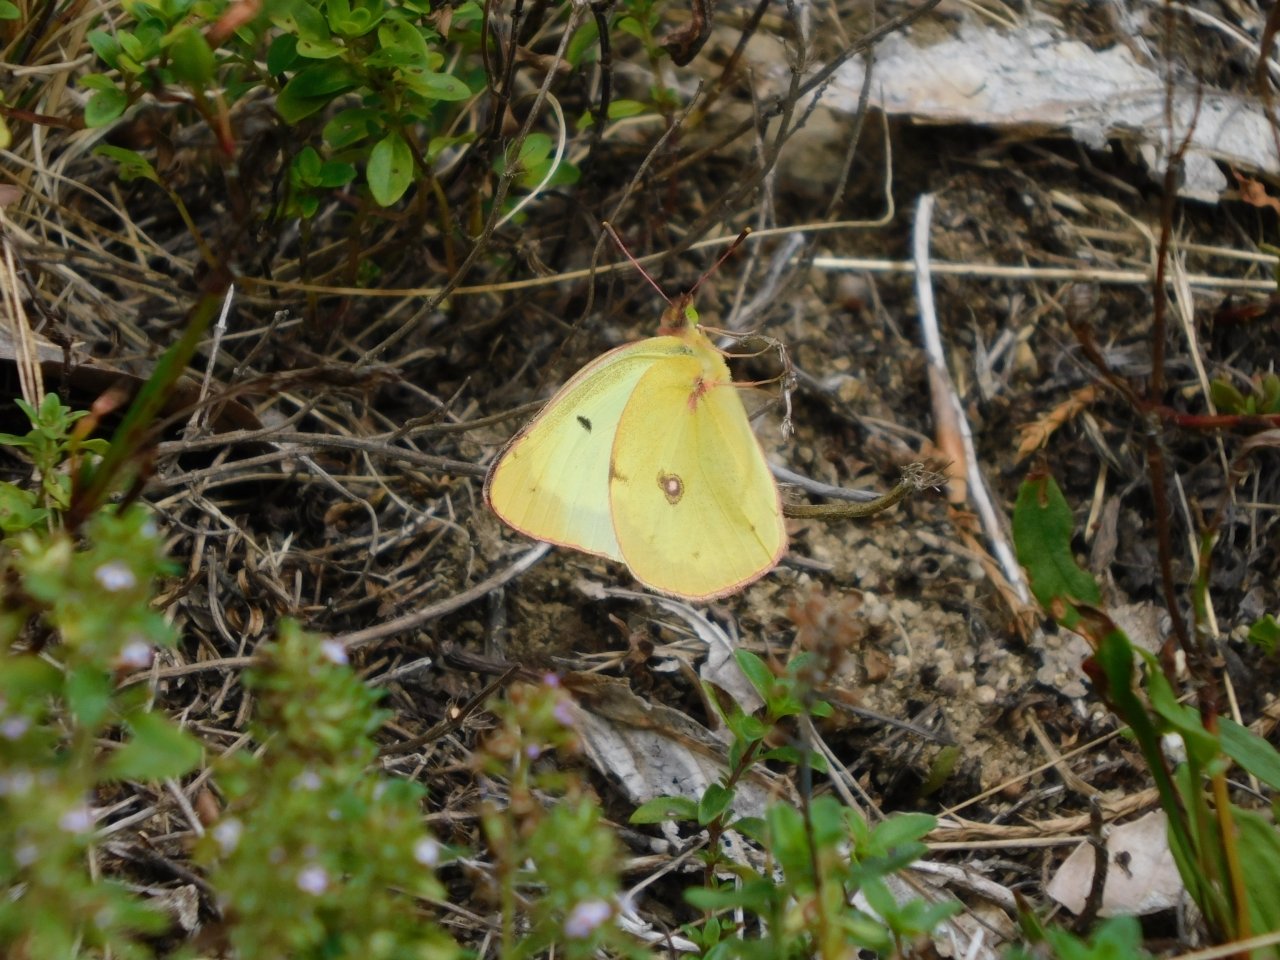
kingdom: Animalia
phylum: Arthropoda
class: Insecta
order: Lepidoptera
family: Pieridae
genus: Colias
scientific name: Colias philodice
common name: Clouded Sulphur
